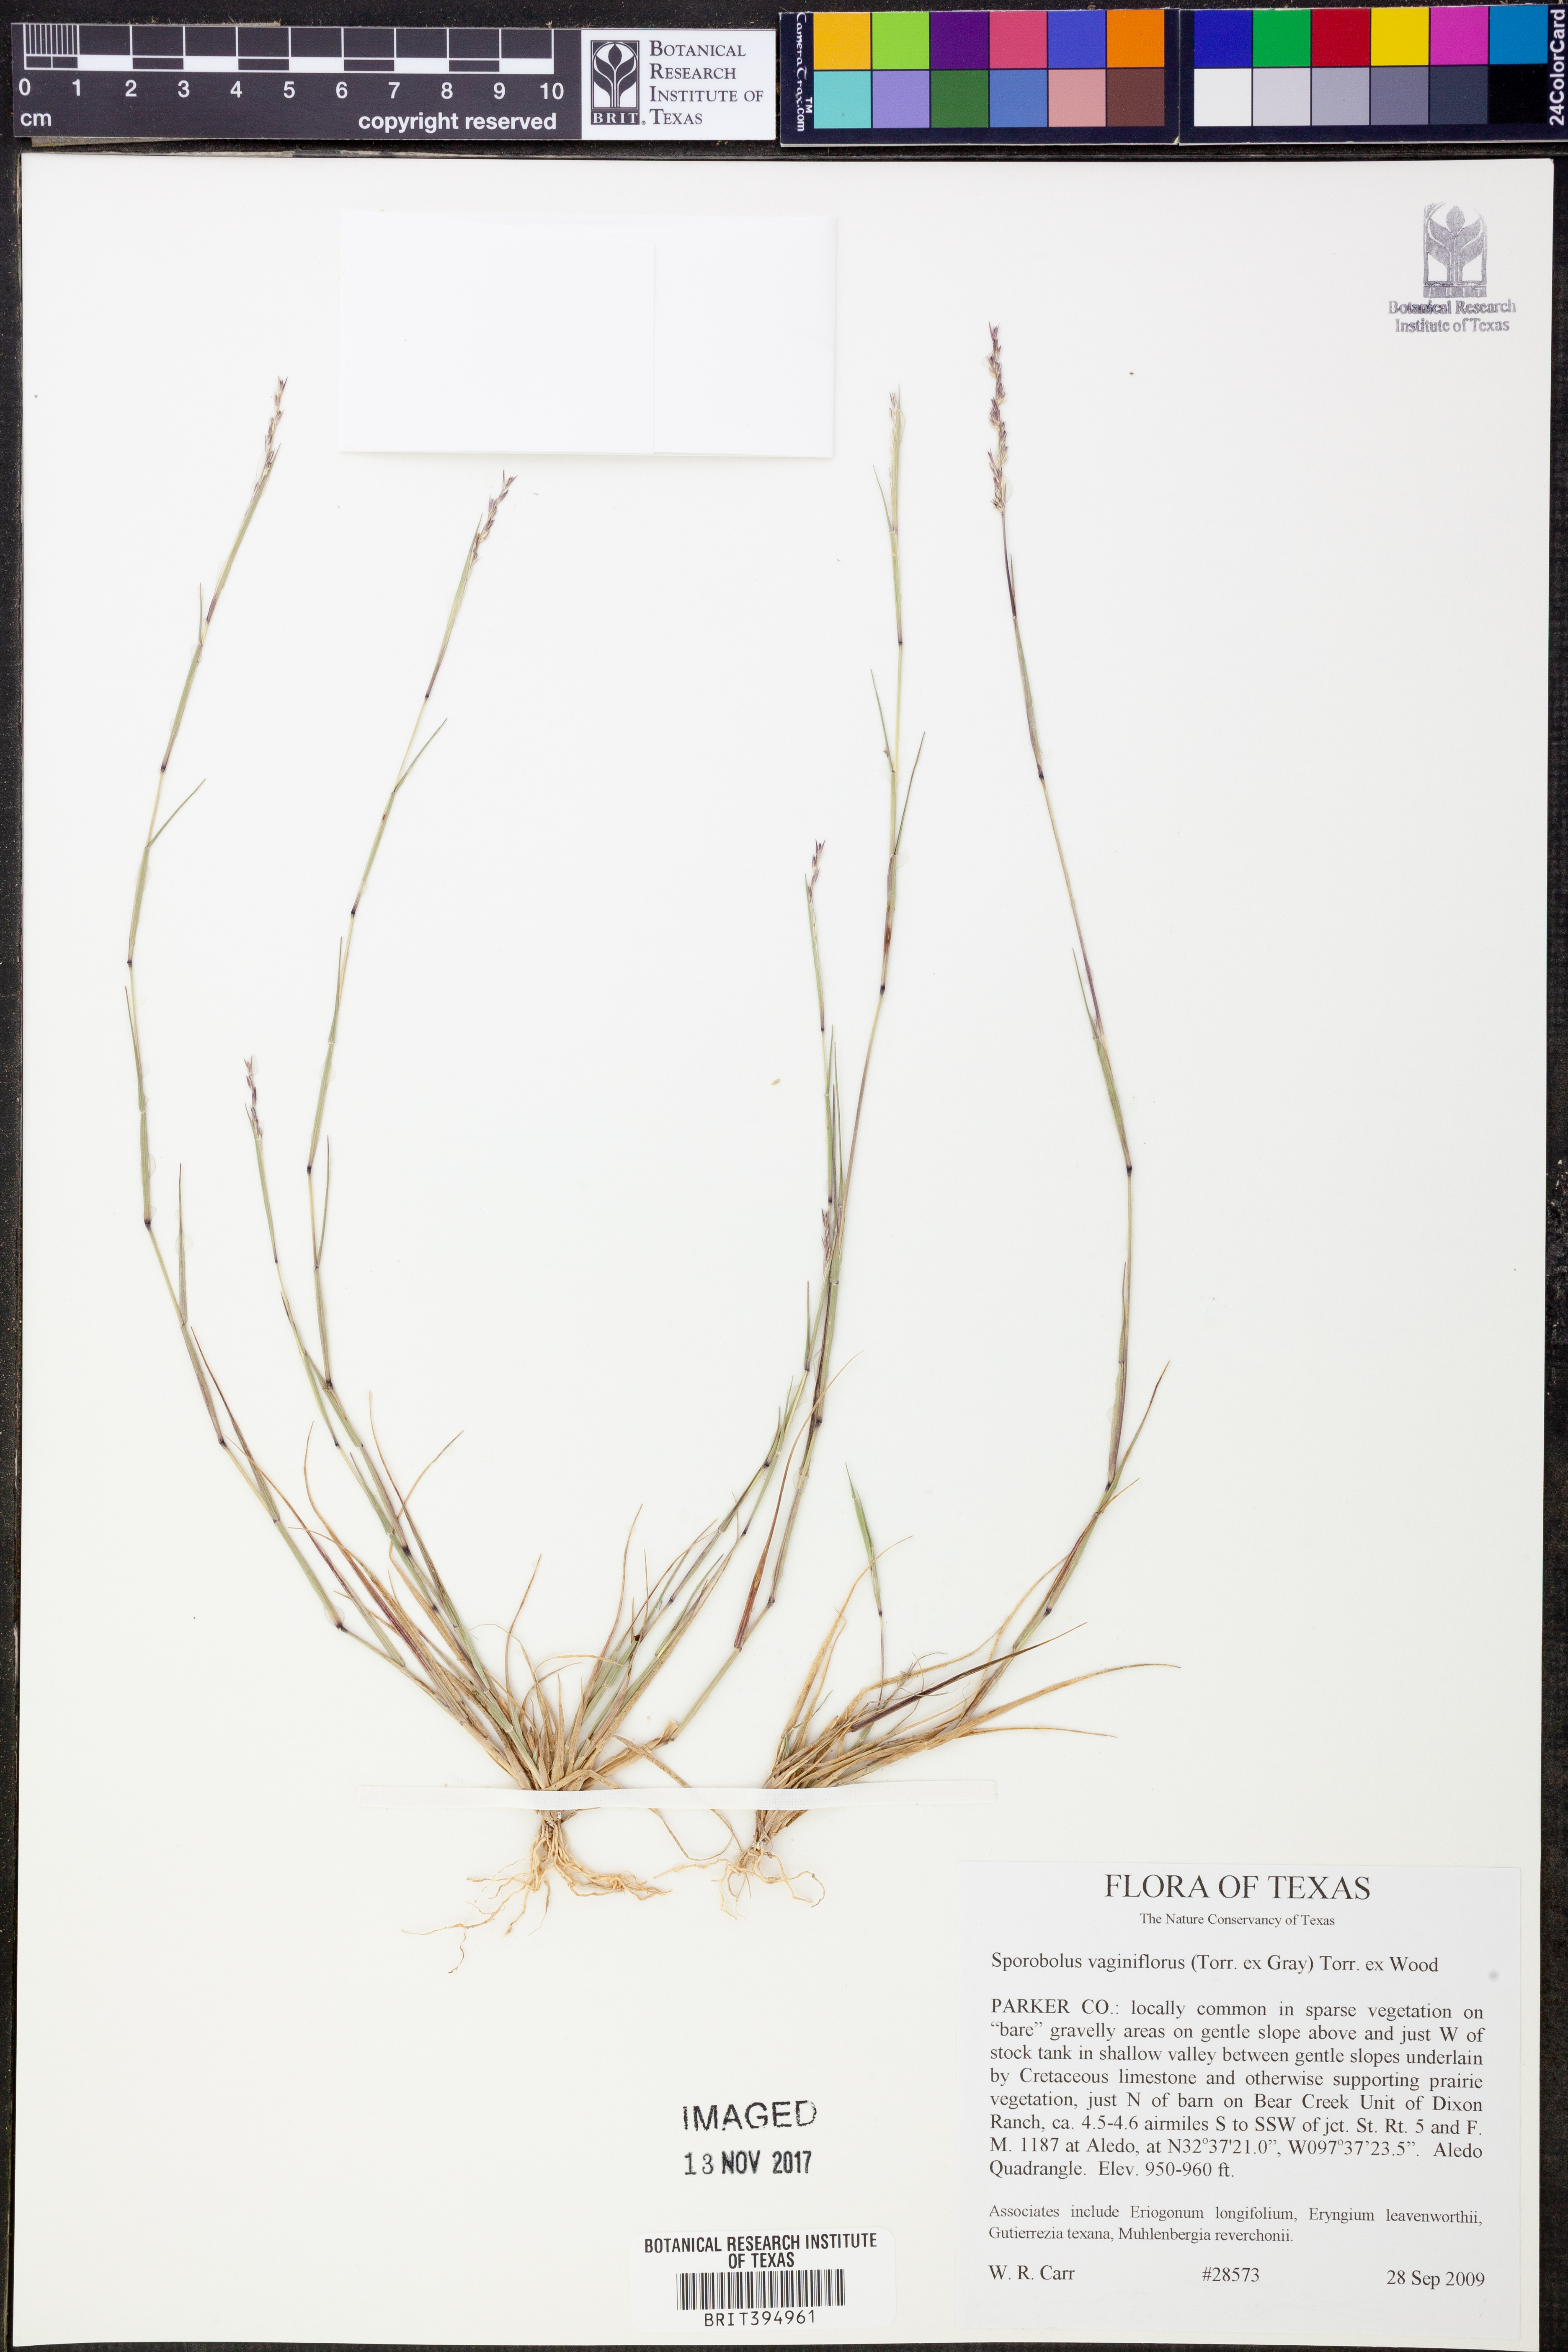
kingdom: Plantae
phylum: Tracheophyta
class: Liliopsida
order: Poales
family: Poaceae
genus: Sporobolus
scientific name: Sporobolus vaginiflorus
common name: Poverty dropseed
